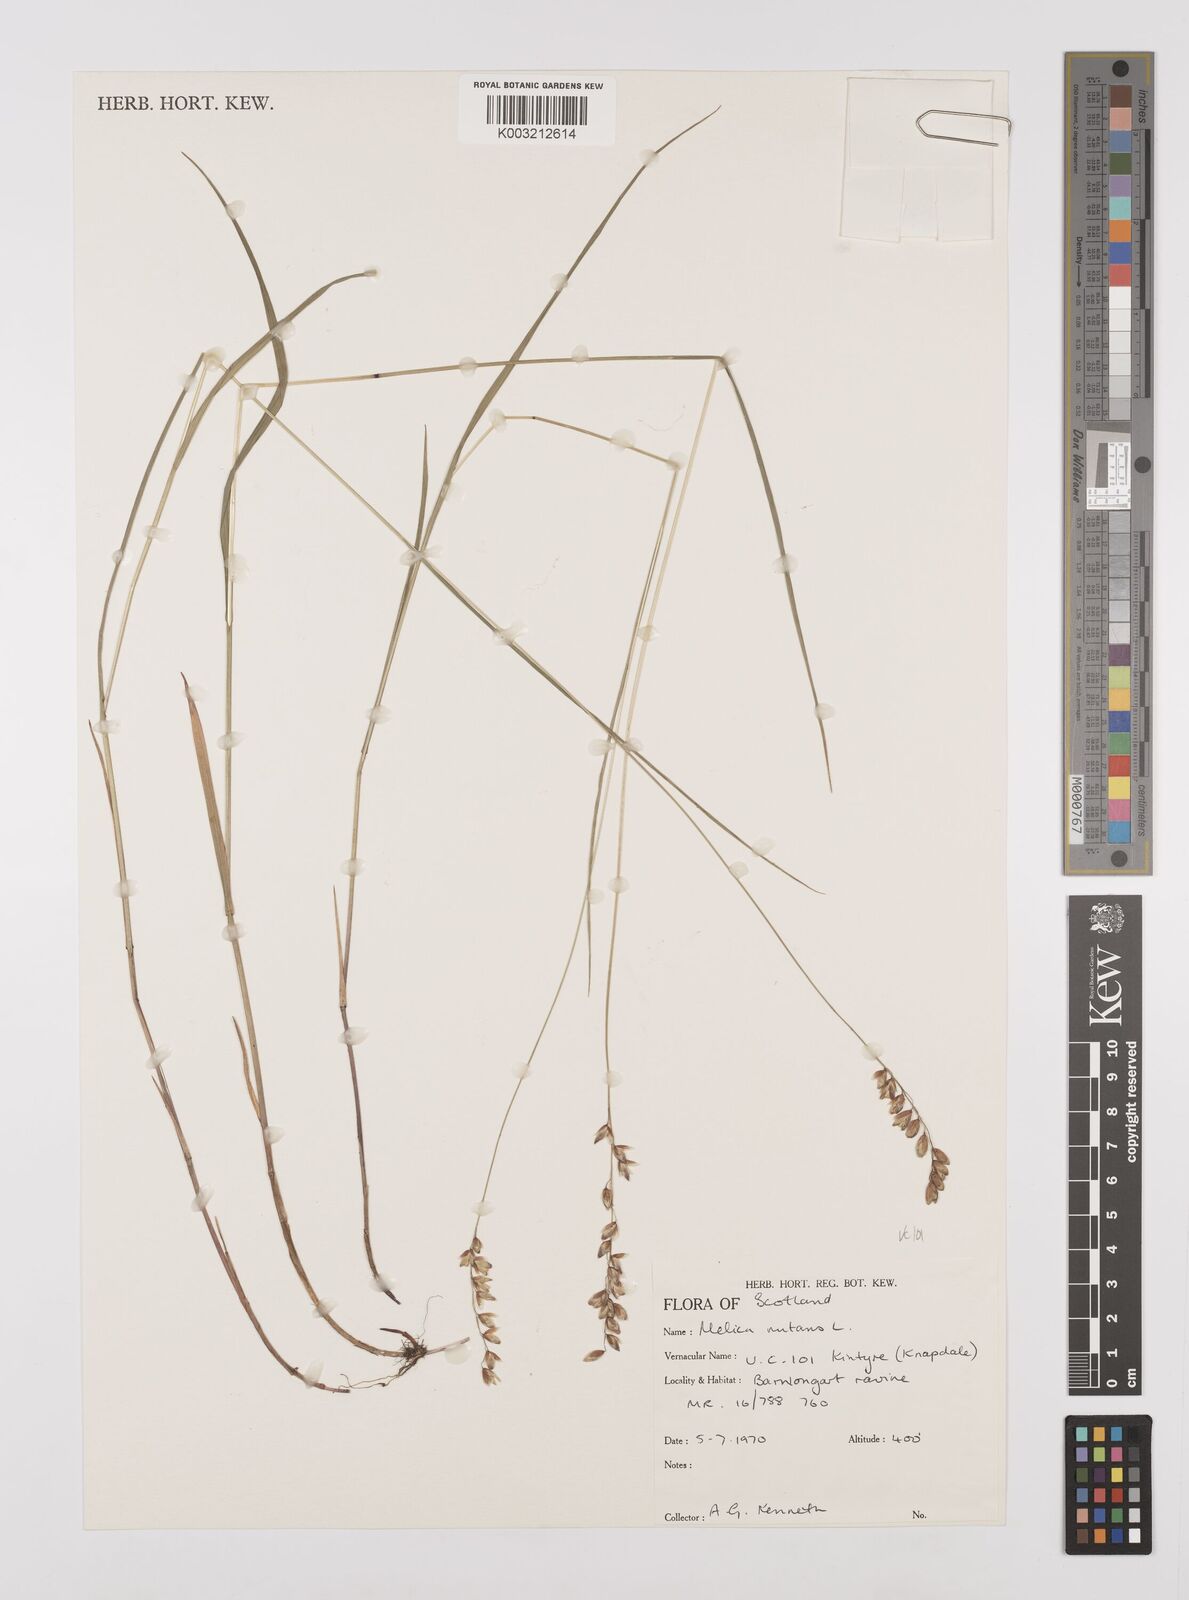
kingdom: Plantae
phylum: Tracheophyta
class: Liliopsida
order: Poales
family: Poaceae
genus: Melica
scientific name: Melica
